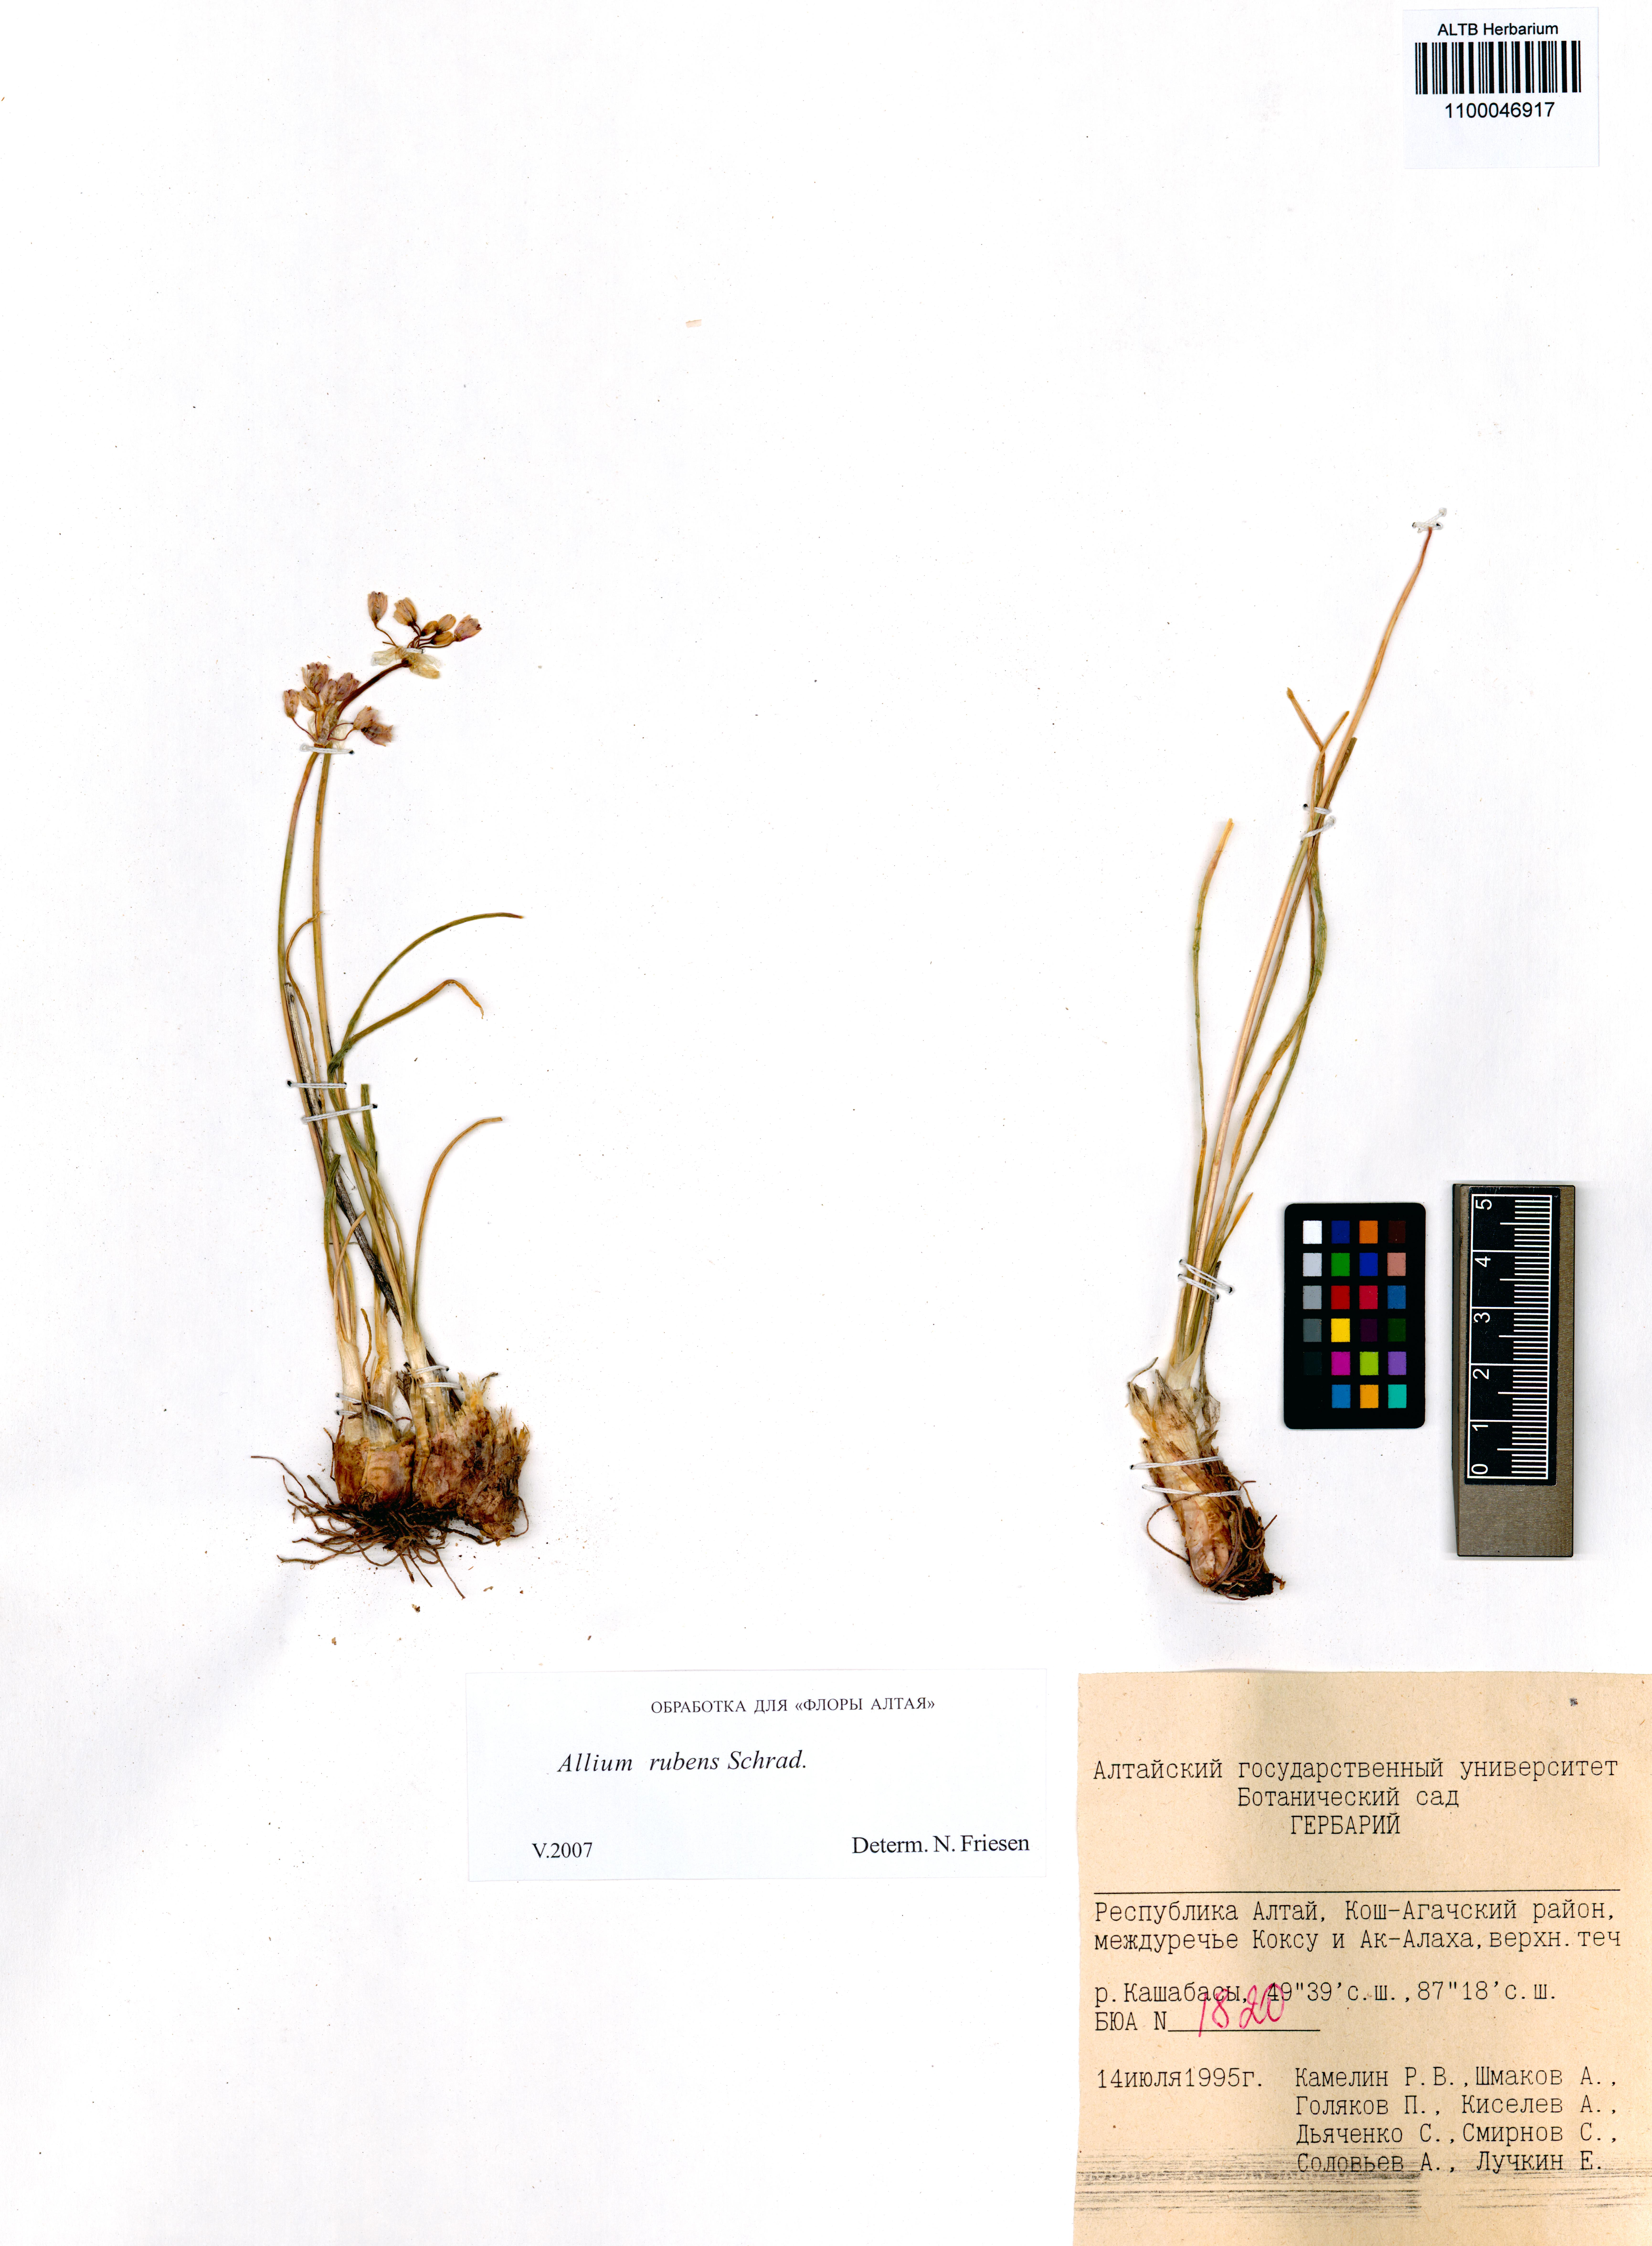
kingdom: Plantae
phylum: Tracheophyta
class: Liliopsida
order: Asparagales
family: Amaryllidaceae
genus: Allium
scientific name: Allium rubens
